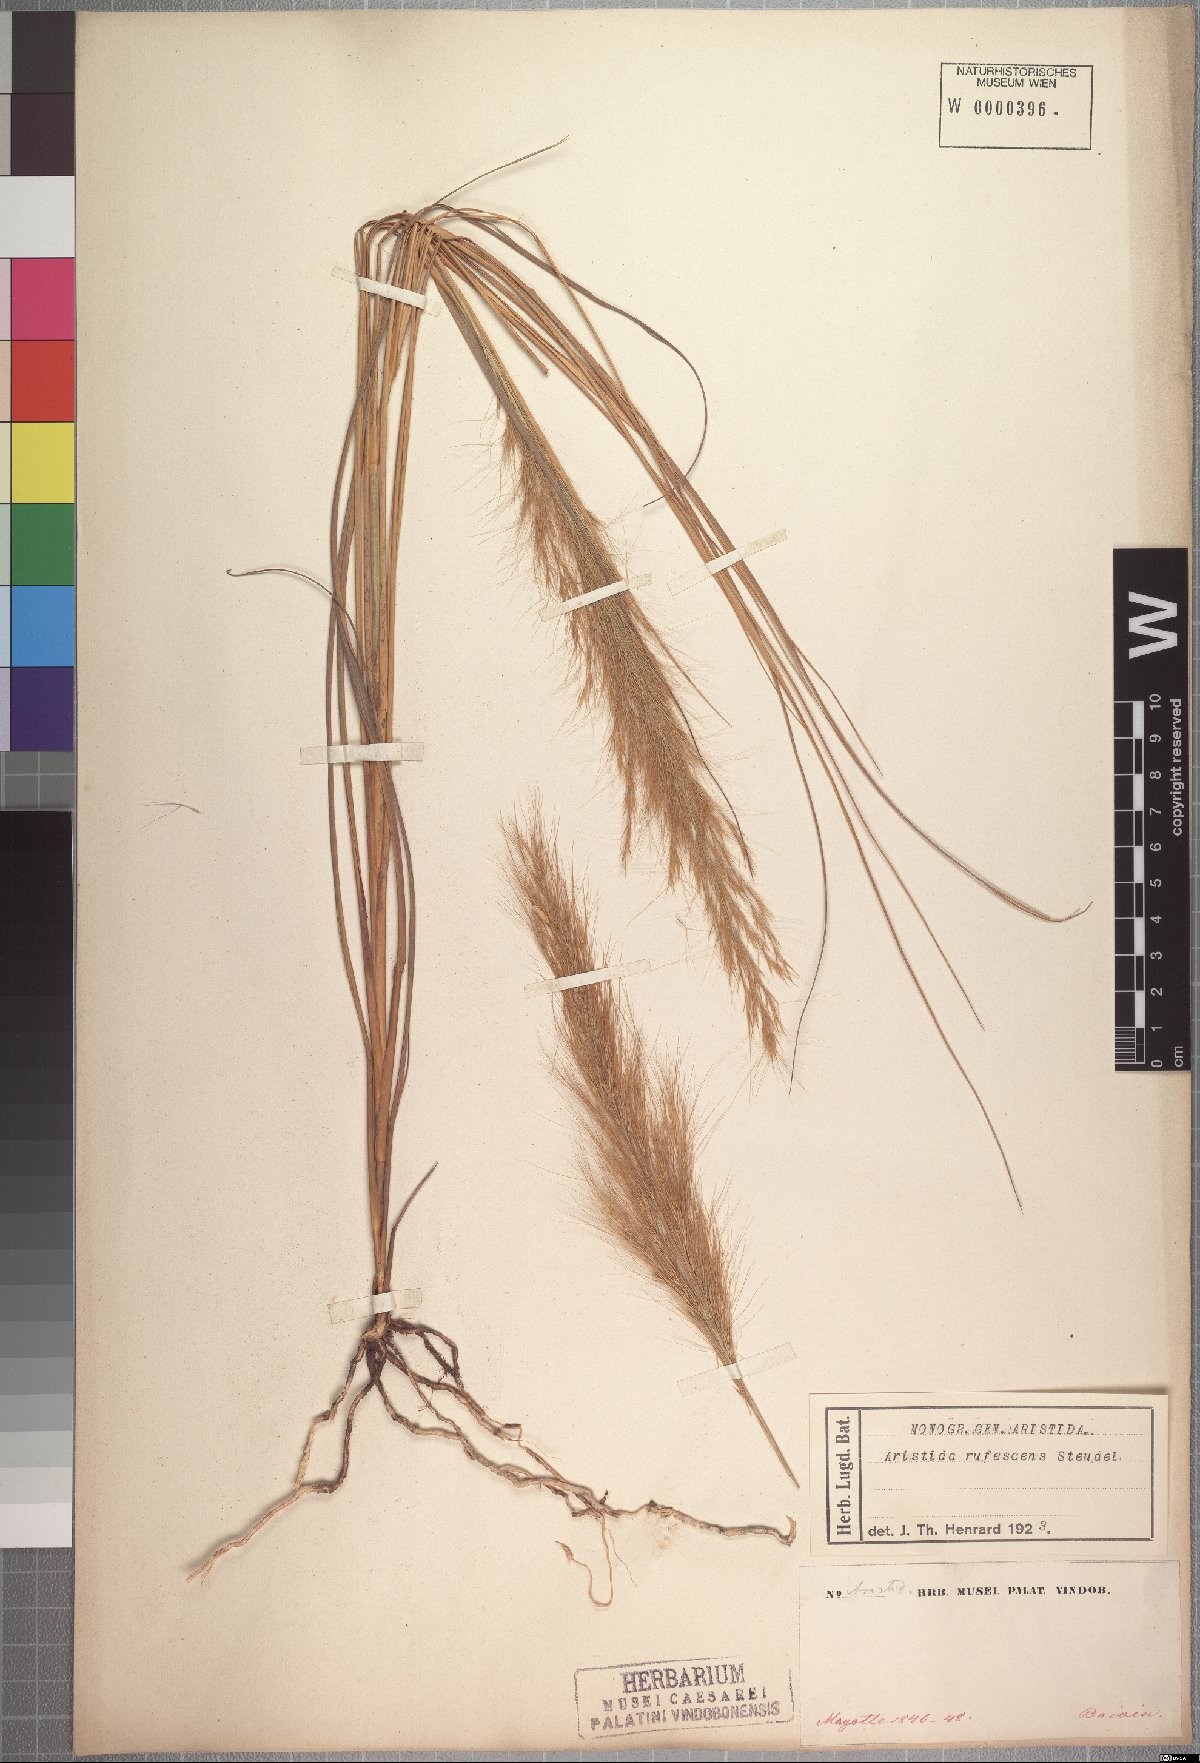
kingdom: Plantae
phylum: Tracheophyta
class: Liliopsida
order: Poales
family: Poaceae
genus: Aristida
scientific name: Aristida rufescens
